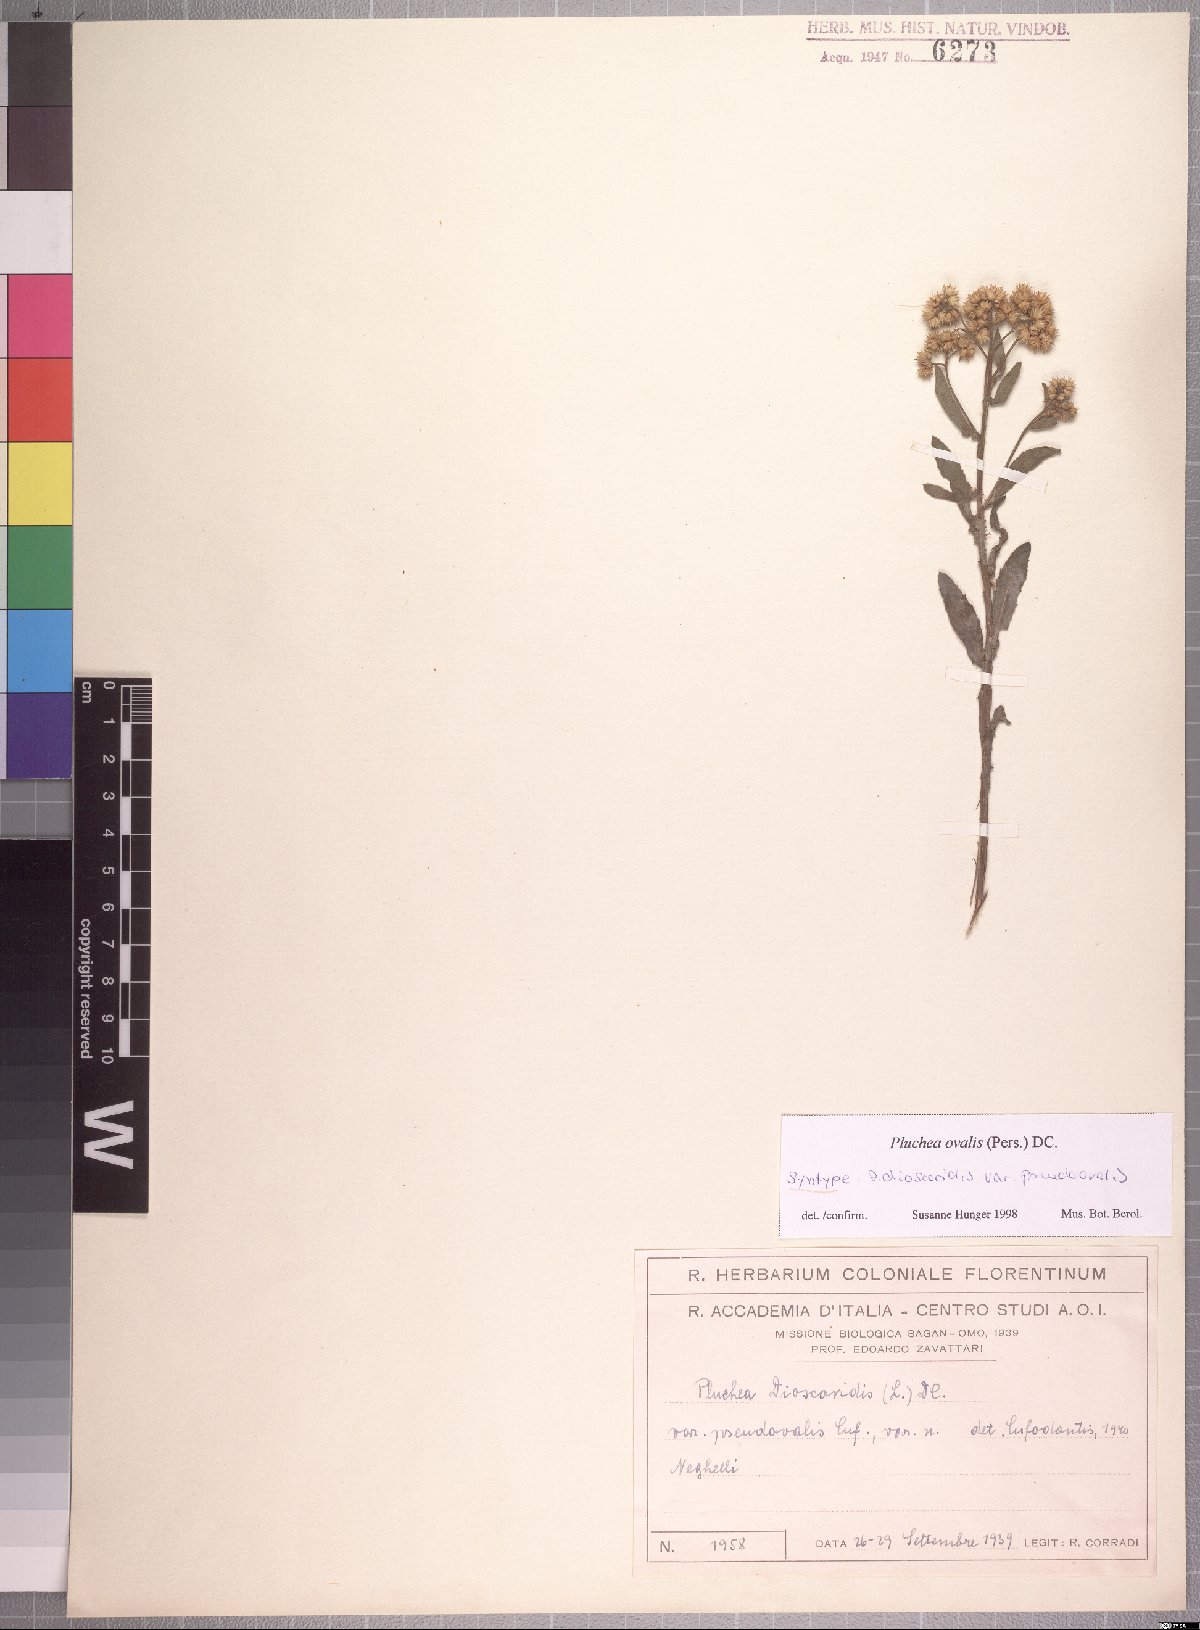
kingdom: Plantae
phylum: Tracheophyta
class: Magnoliopsida
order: Asterales
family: Asteraceae
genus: Pluchea
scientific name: Pluchea ovalis
